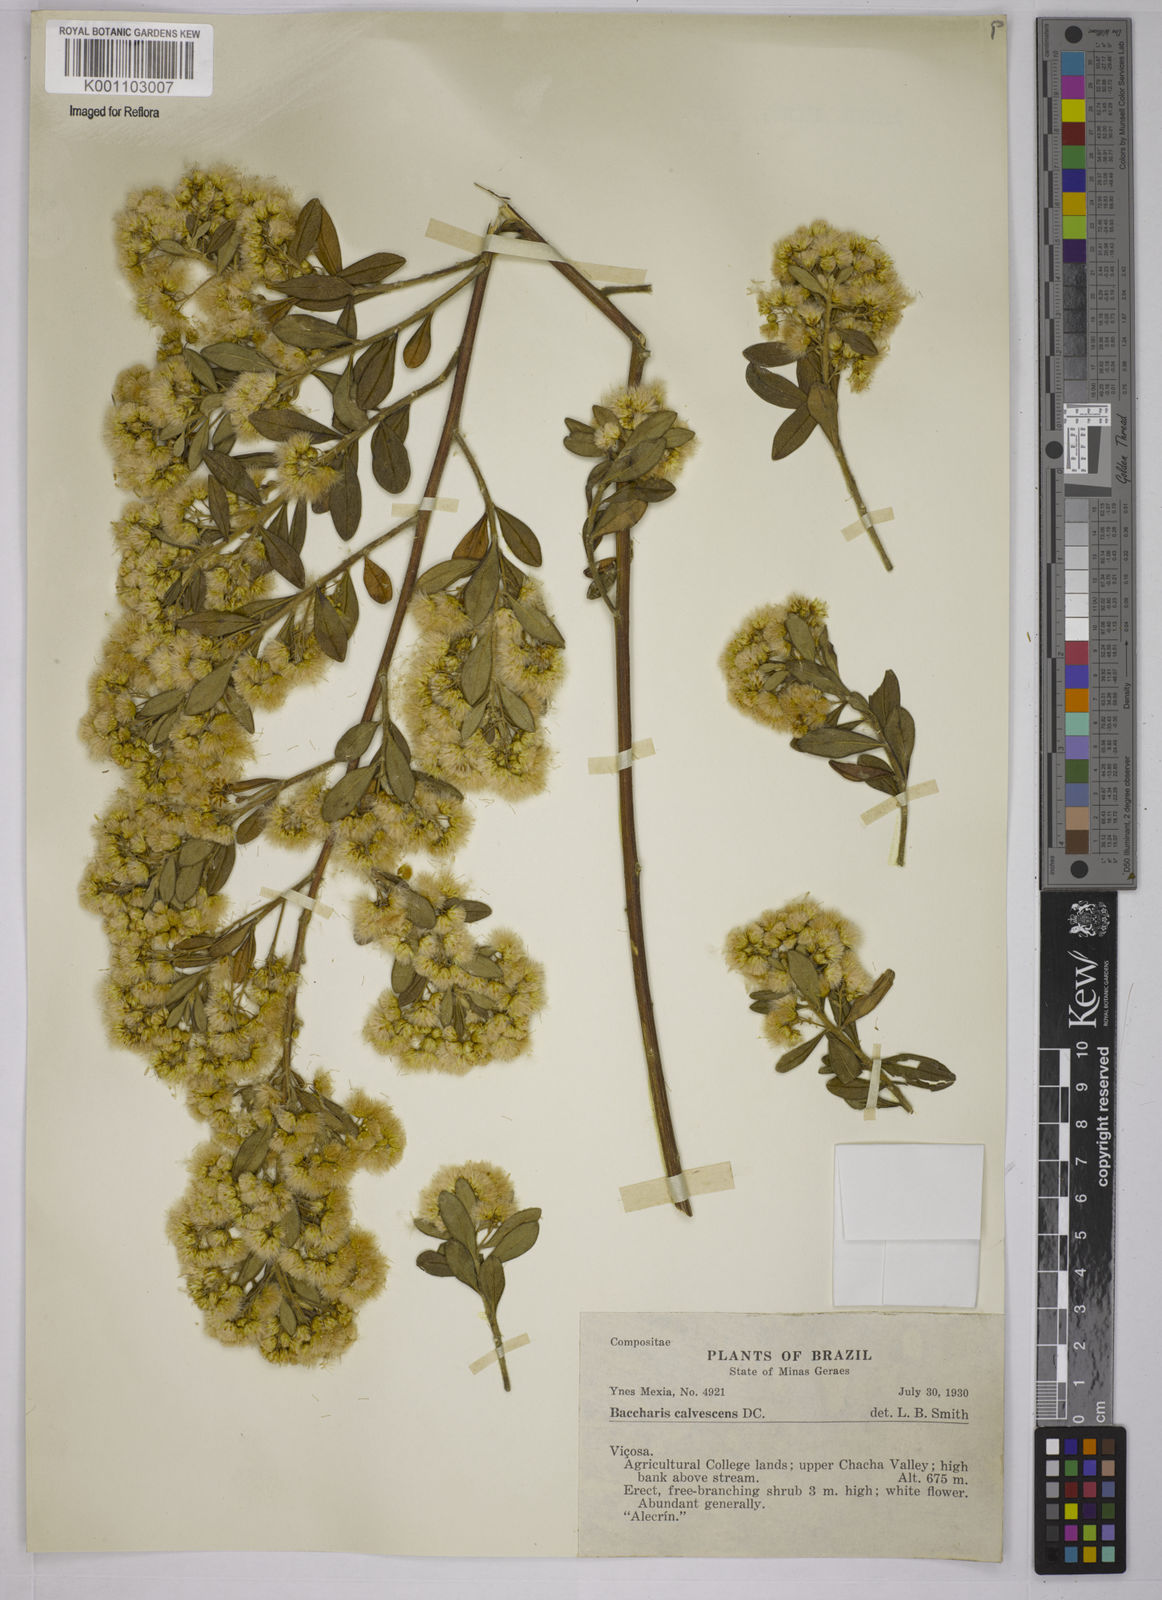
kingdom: Plantae
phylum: Tracheophyta
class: Magnoliopsida
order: Asterales
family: Asteraceae
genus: Baccharis
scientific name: Baccharis calvescens
